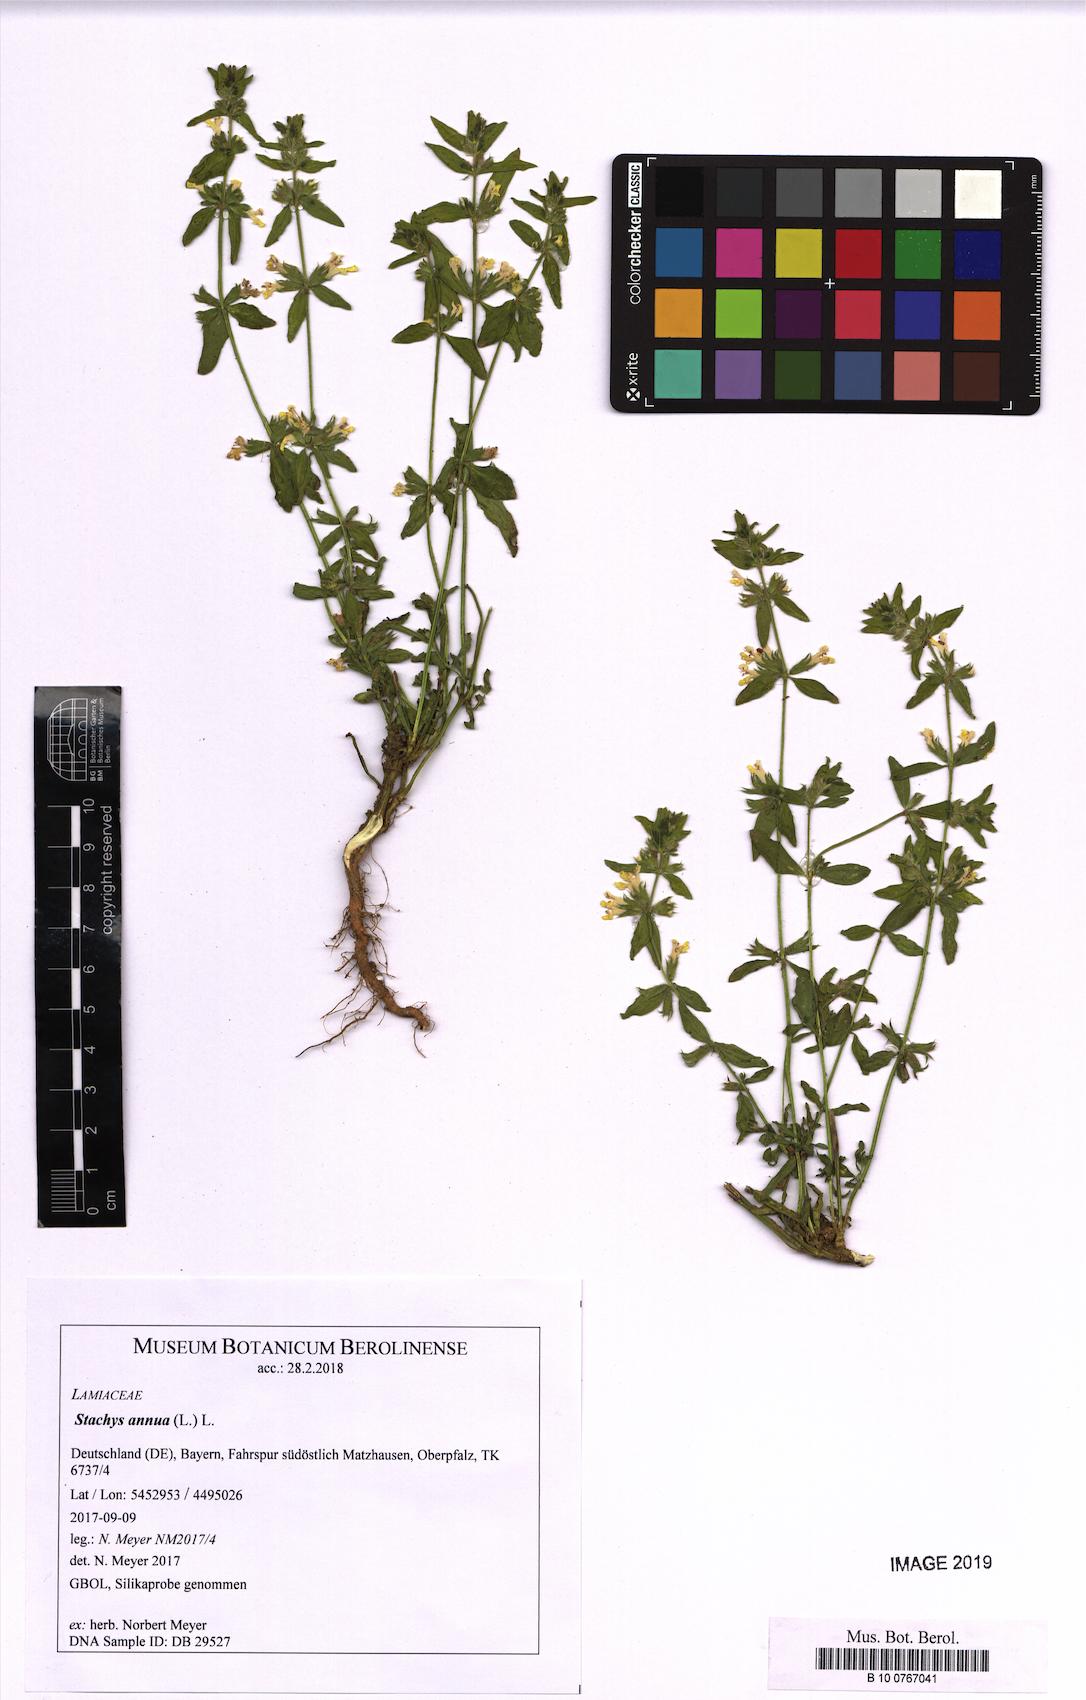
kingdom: Plantae
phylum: Tracheophyta
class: Magnoliopsida
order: Lamiales
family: Lamiaceae
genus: Stachys
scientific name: Stachys annua
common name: Annual yellow-woundwort
